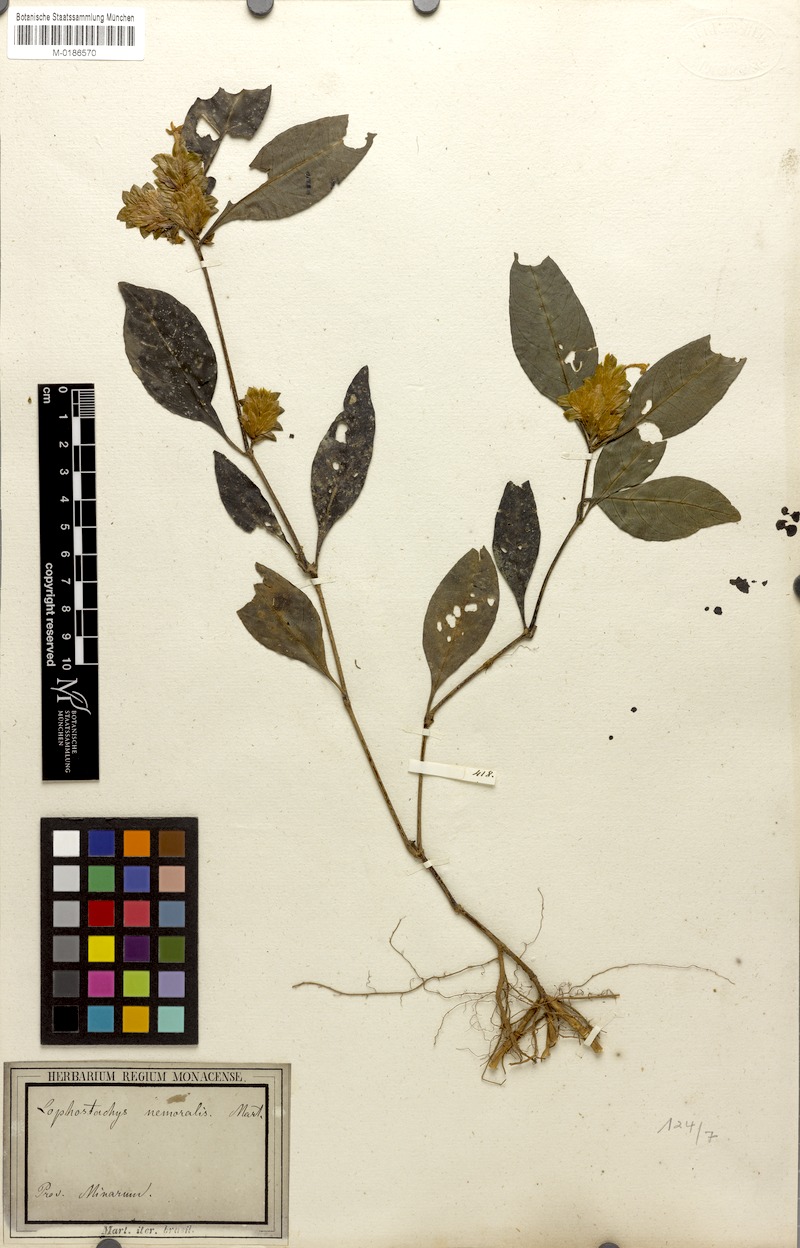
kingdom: Plantae
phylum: Tracheophyta
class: Magnoliopsida
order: Lamiales
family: Acanthaceae
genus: Lepidagathis
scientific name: Lepidagathis nemoralis
